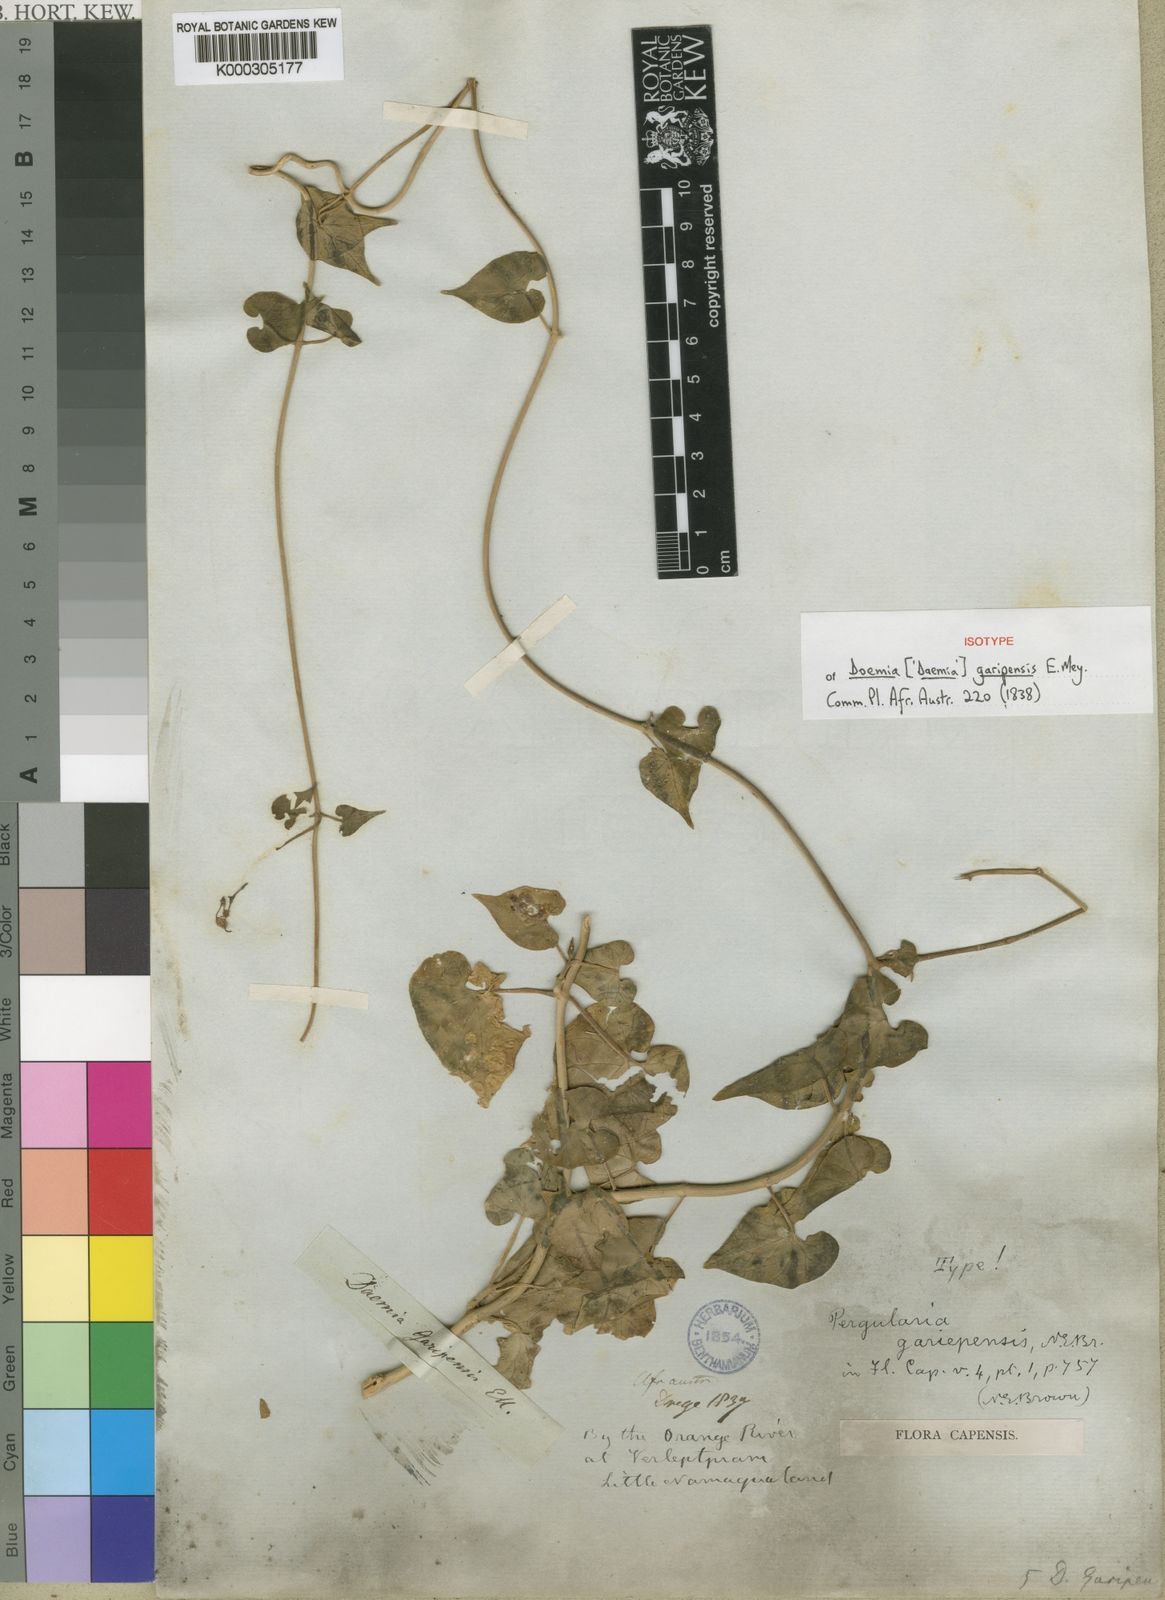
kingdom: Plantae
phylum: Tracheophyta
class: Magnoliopsida
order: Gentianales
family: Apocynaceae
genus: Pergularia
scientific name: Pergularia daemia
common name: Trellis-vine
